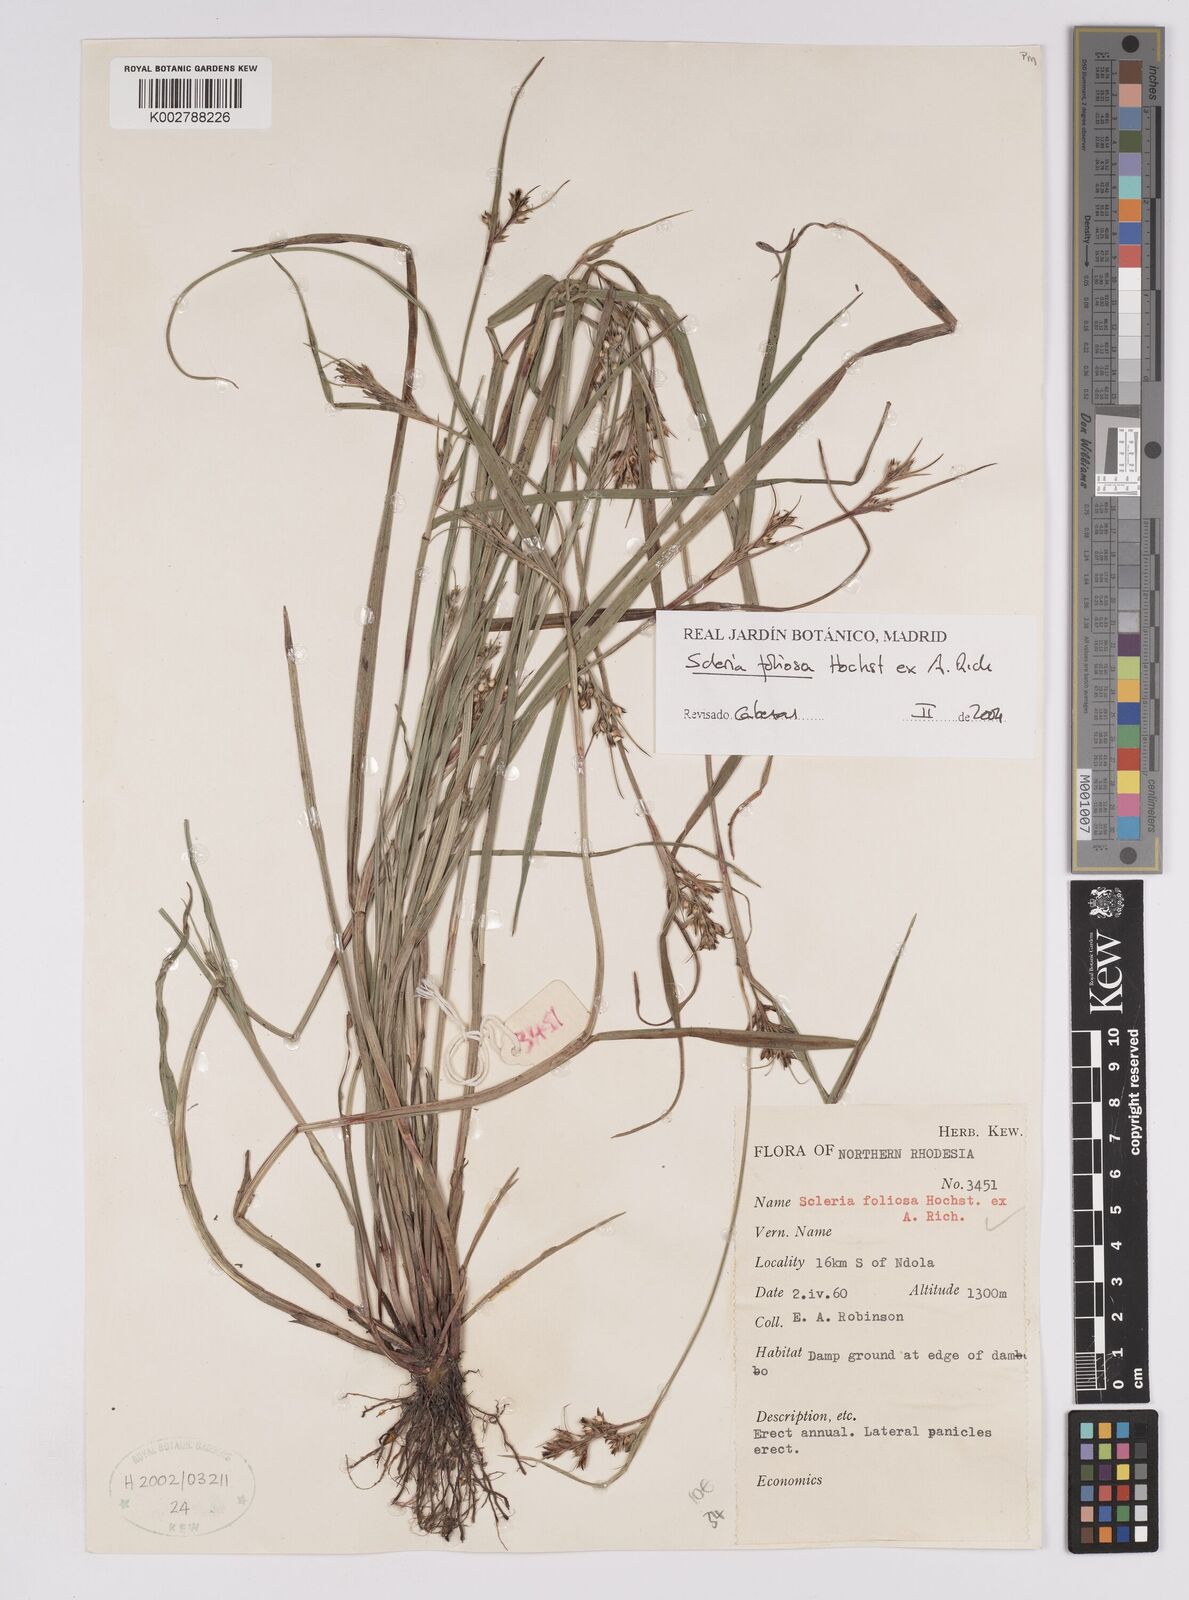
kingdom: Plantae
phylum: Tracheophyta
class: Liliopsida
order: Poales
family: Cyperaceae
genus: Scleria
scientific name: Scleria foliosa
